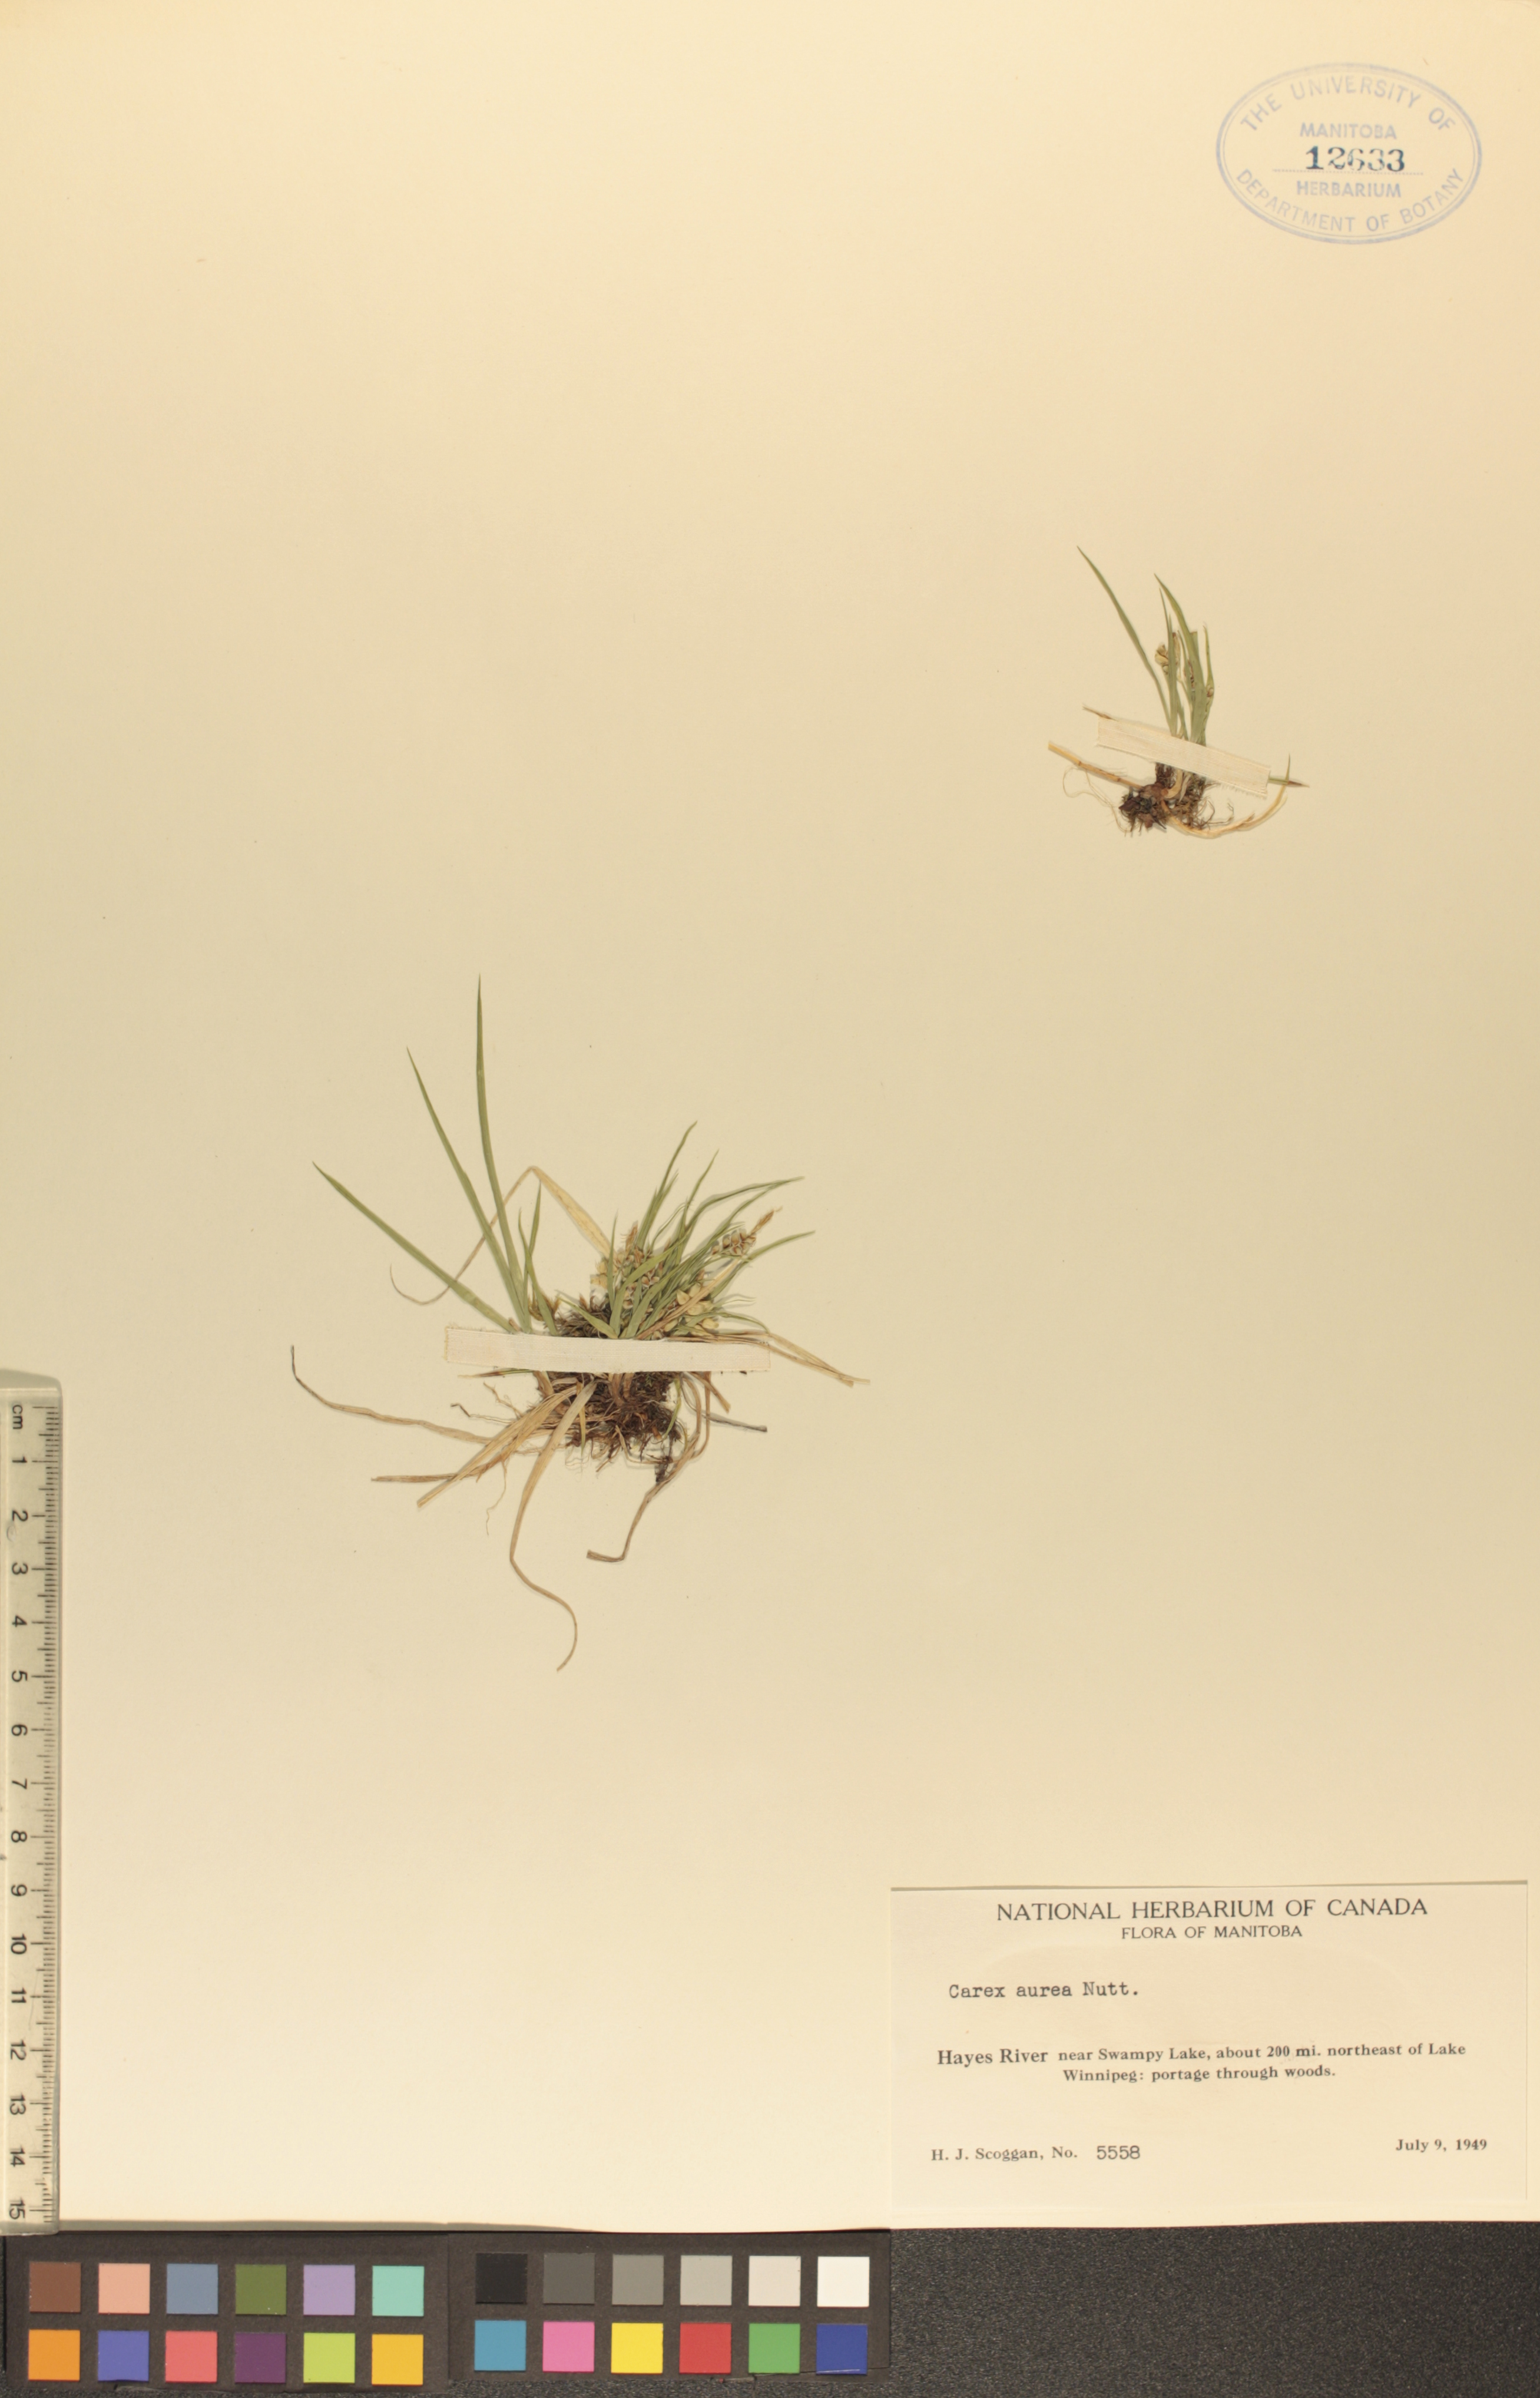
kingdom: Plantae
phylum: Tracheophyta
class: Liliopsida
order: Poales
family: Cyperaceae
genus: Carex
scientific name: Carex aurea
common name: Golden sedge
